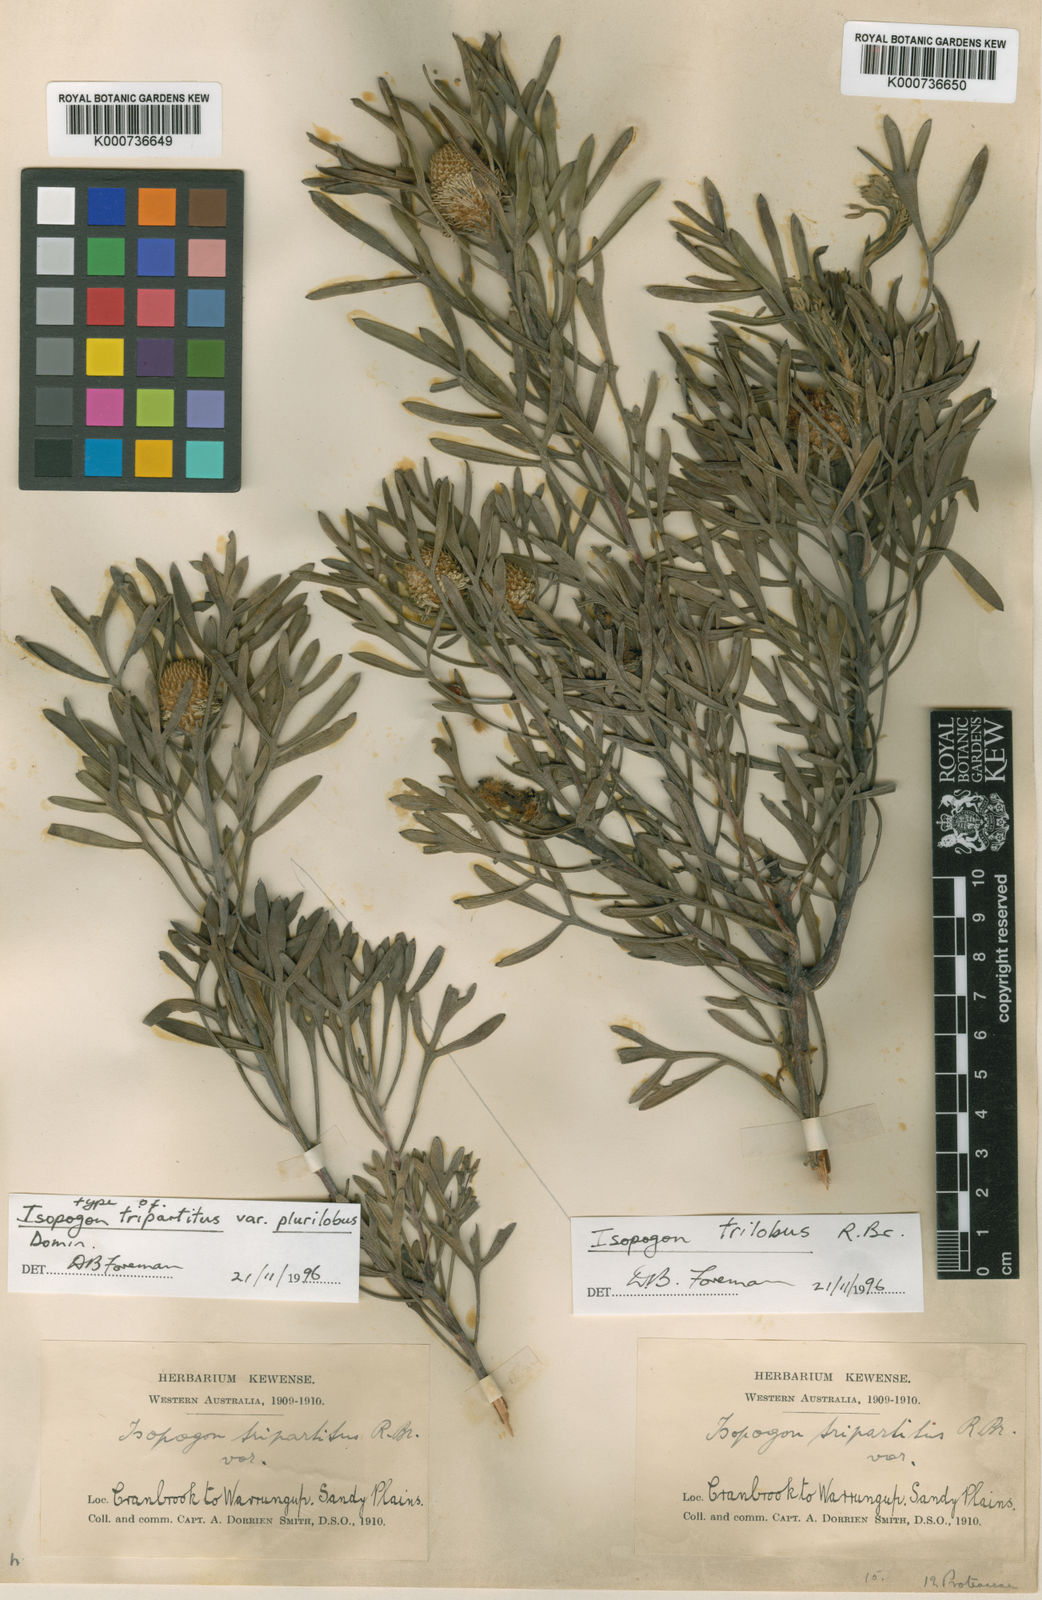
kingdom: Plantae
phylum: Tracheophyta
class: Magnoliopsida
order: Proteales
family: Proteaceae
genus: Isopogon
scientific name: Isopogon trilobus
